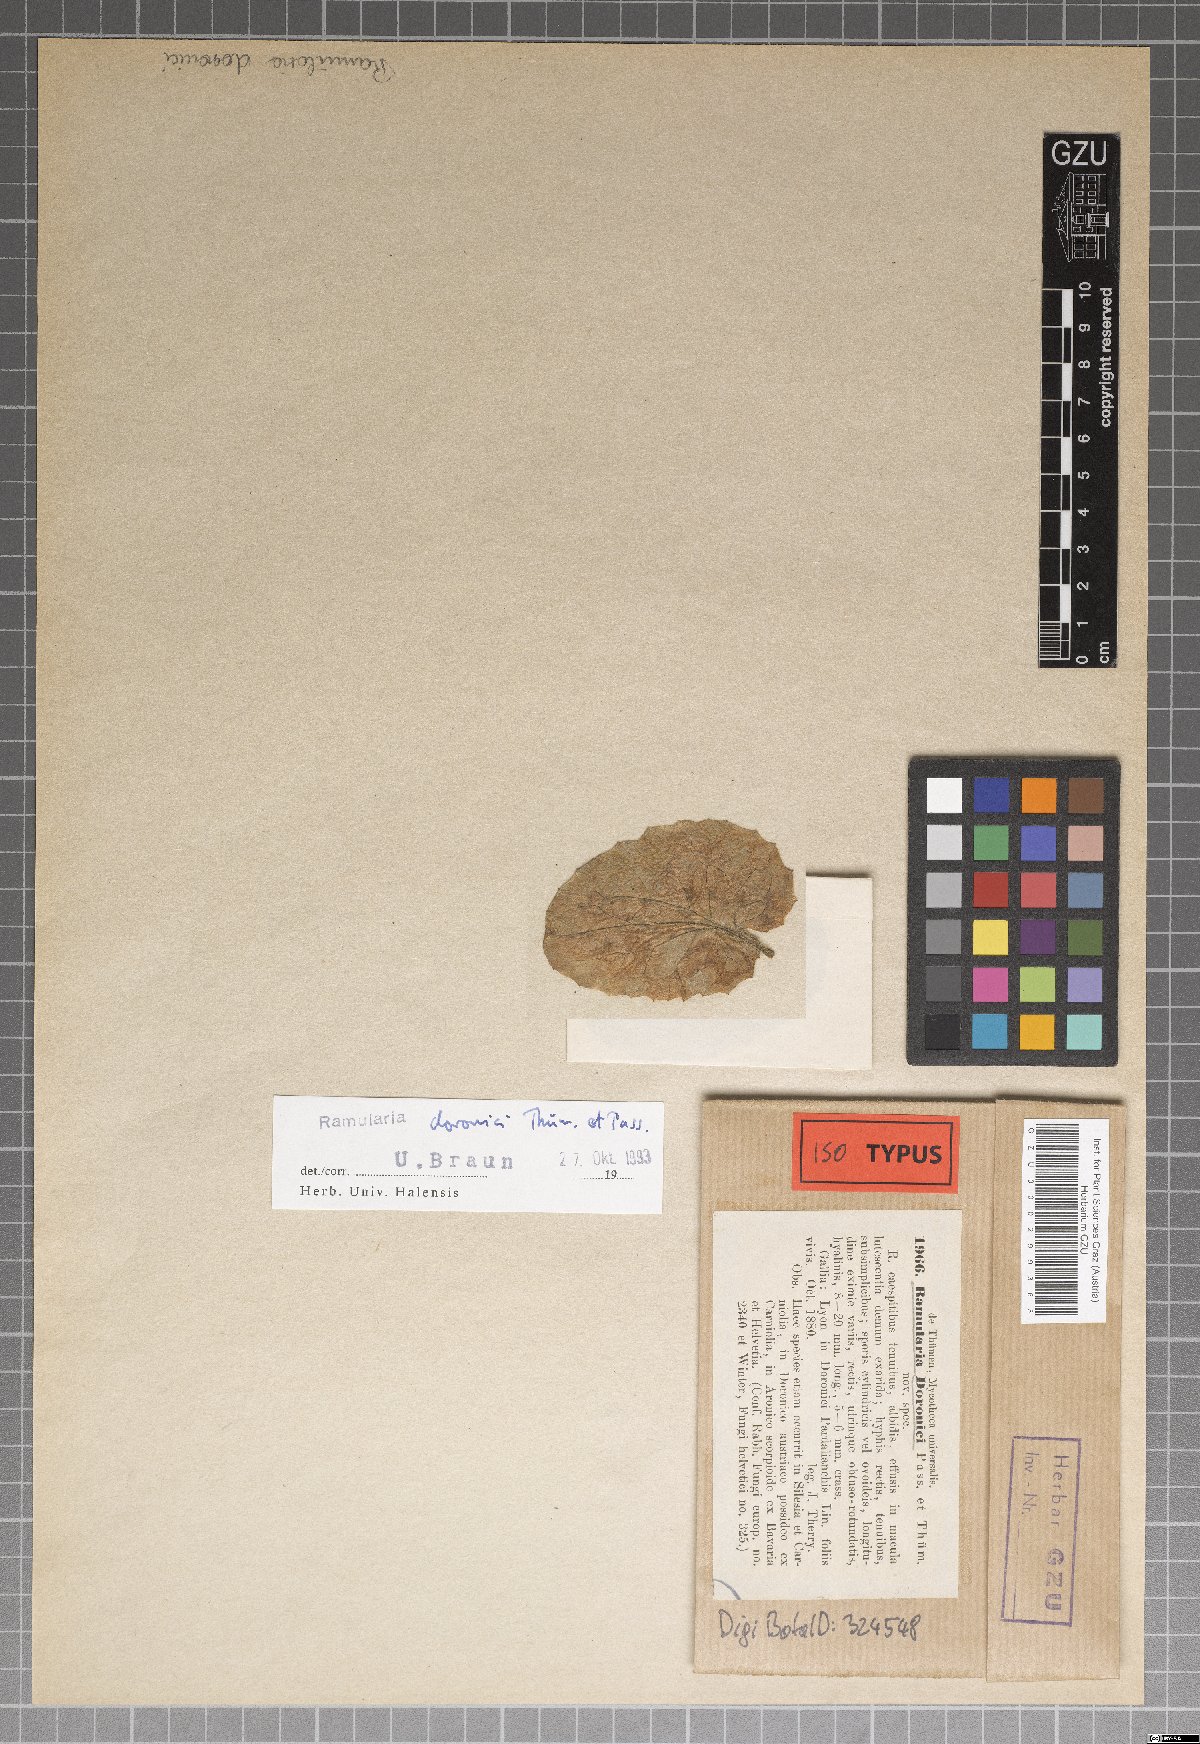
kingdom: Fungi
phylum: Ascomycota
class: Dothideomycetes
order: Capnodiales
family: Mycosphaerellaceae
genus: Ramularia
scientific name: Ramularia doronici
